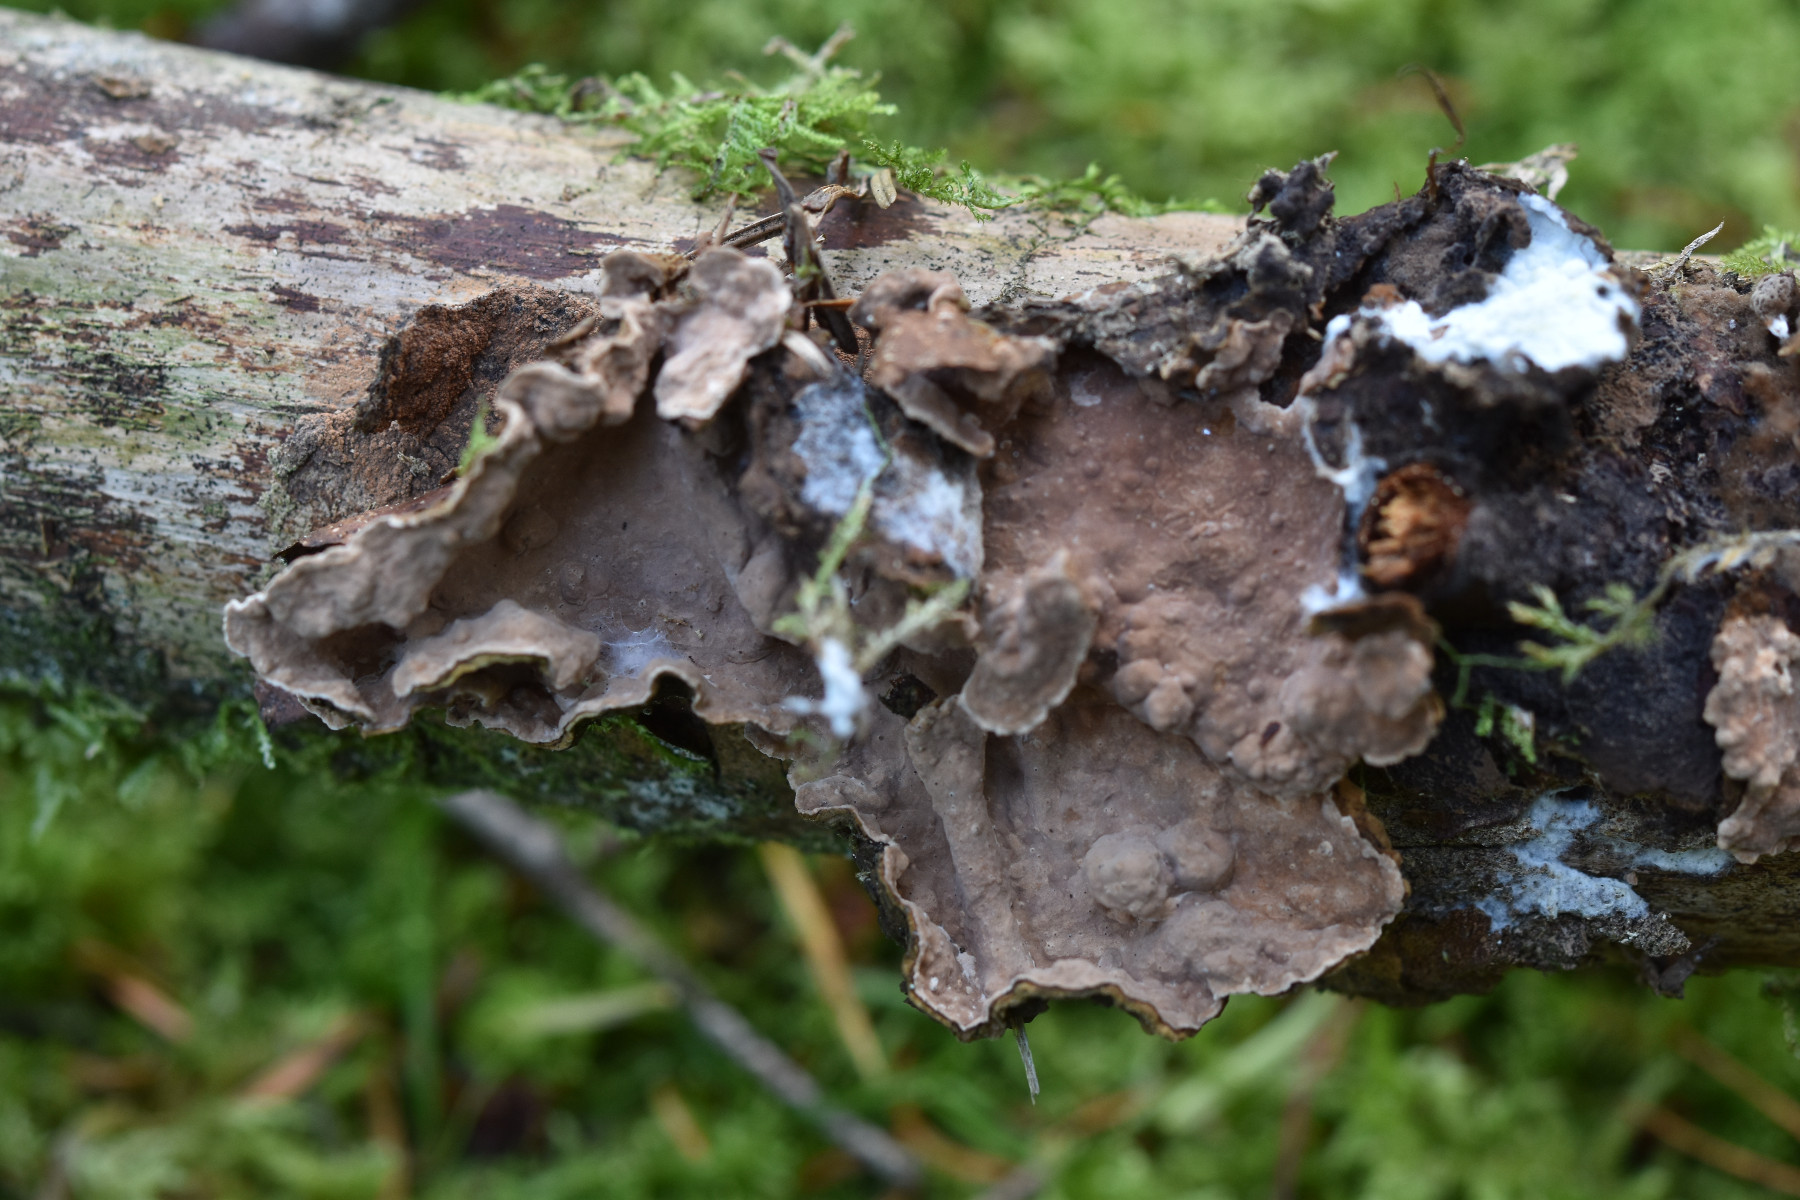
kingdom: Fungi
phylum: Basidiomycota
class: Agaricomycetes
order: Russulales
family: Echinodontiaceae
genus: Amylostereum
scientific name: Amylostereum chailletii
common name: gran-lædersvamp
